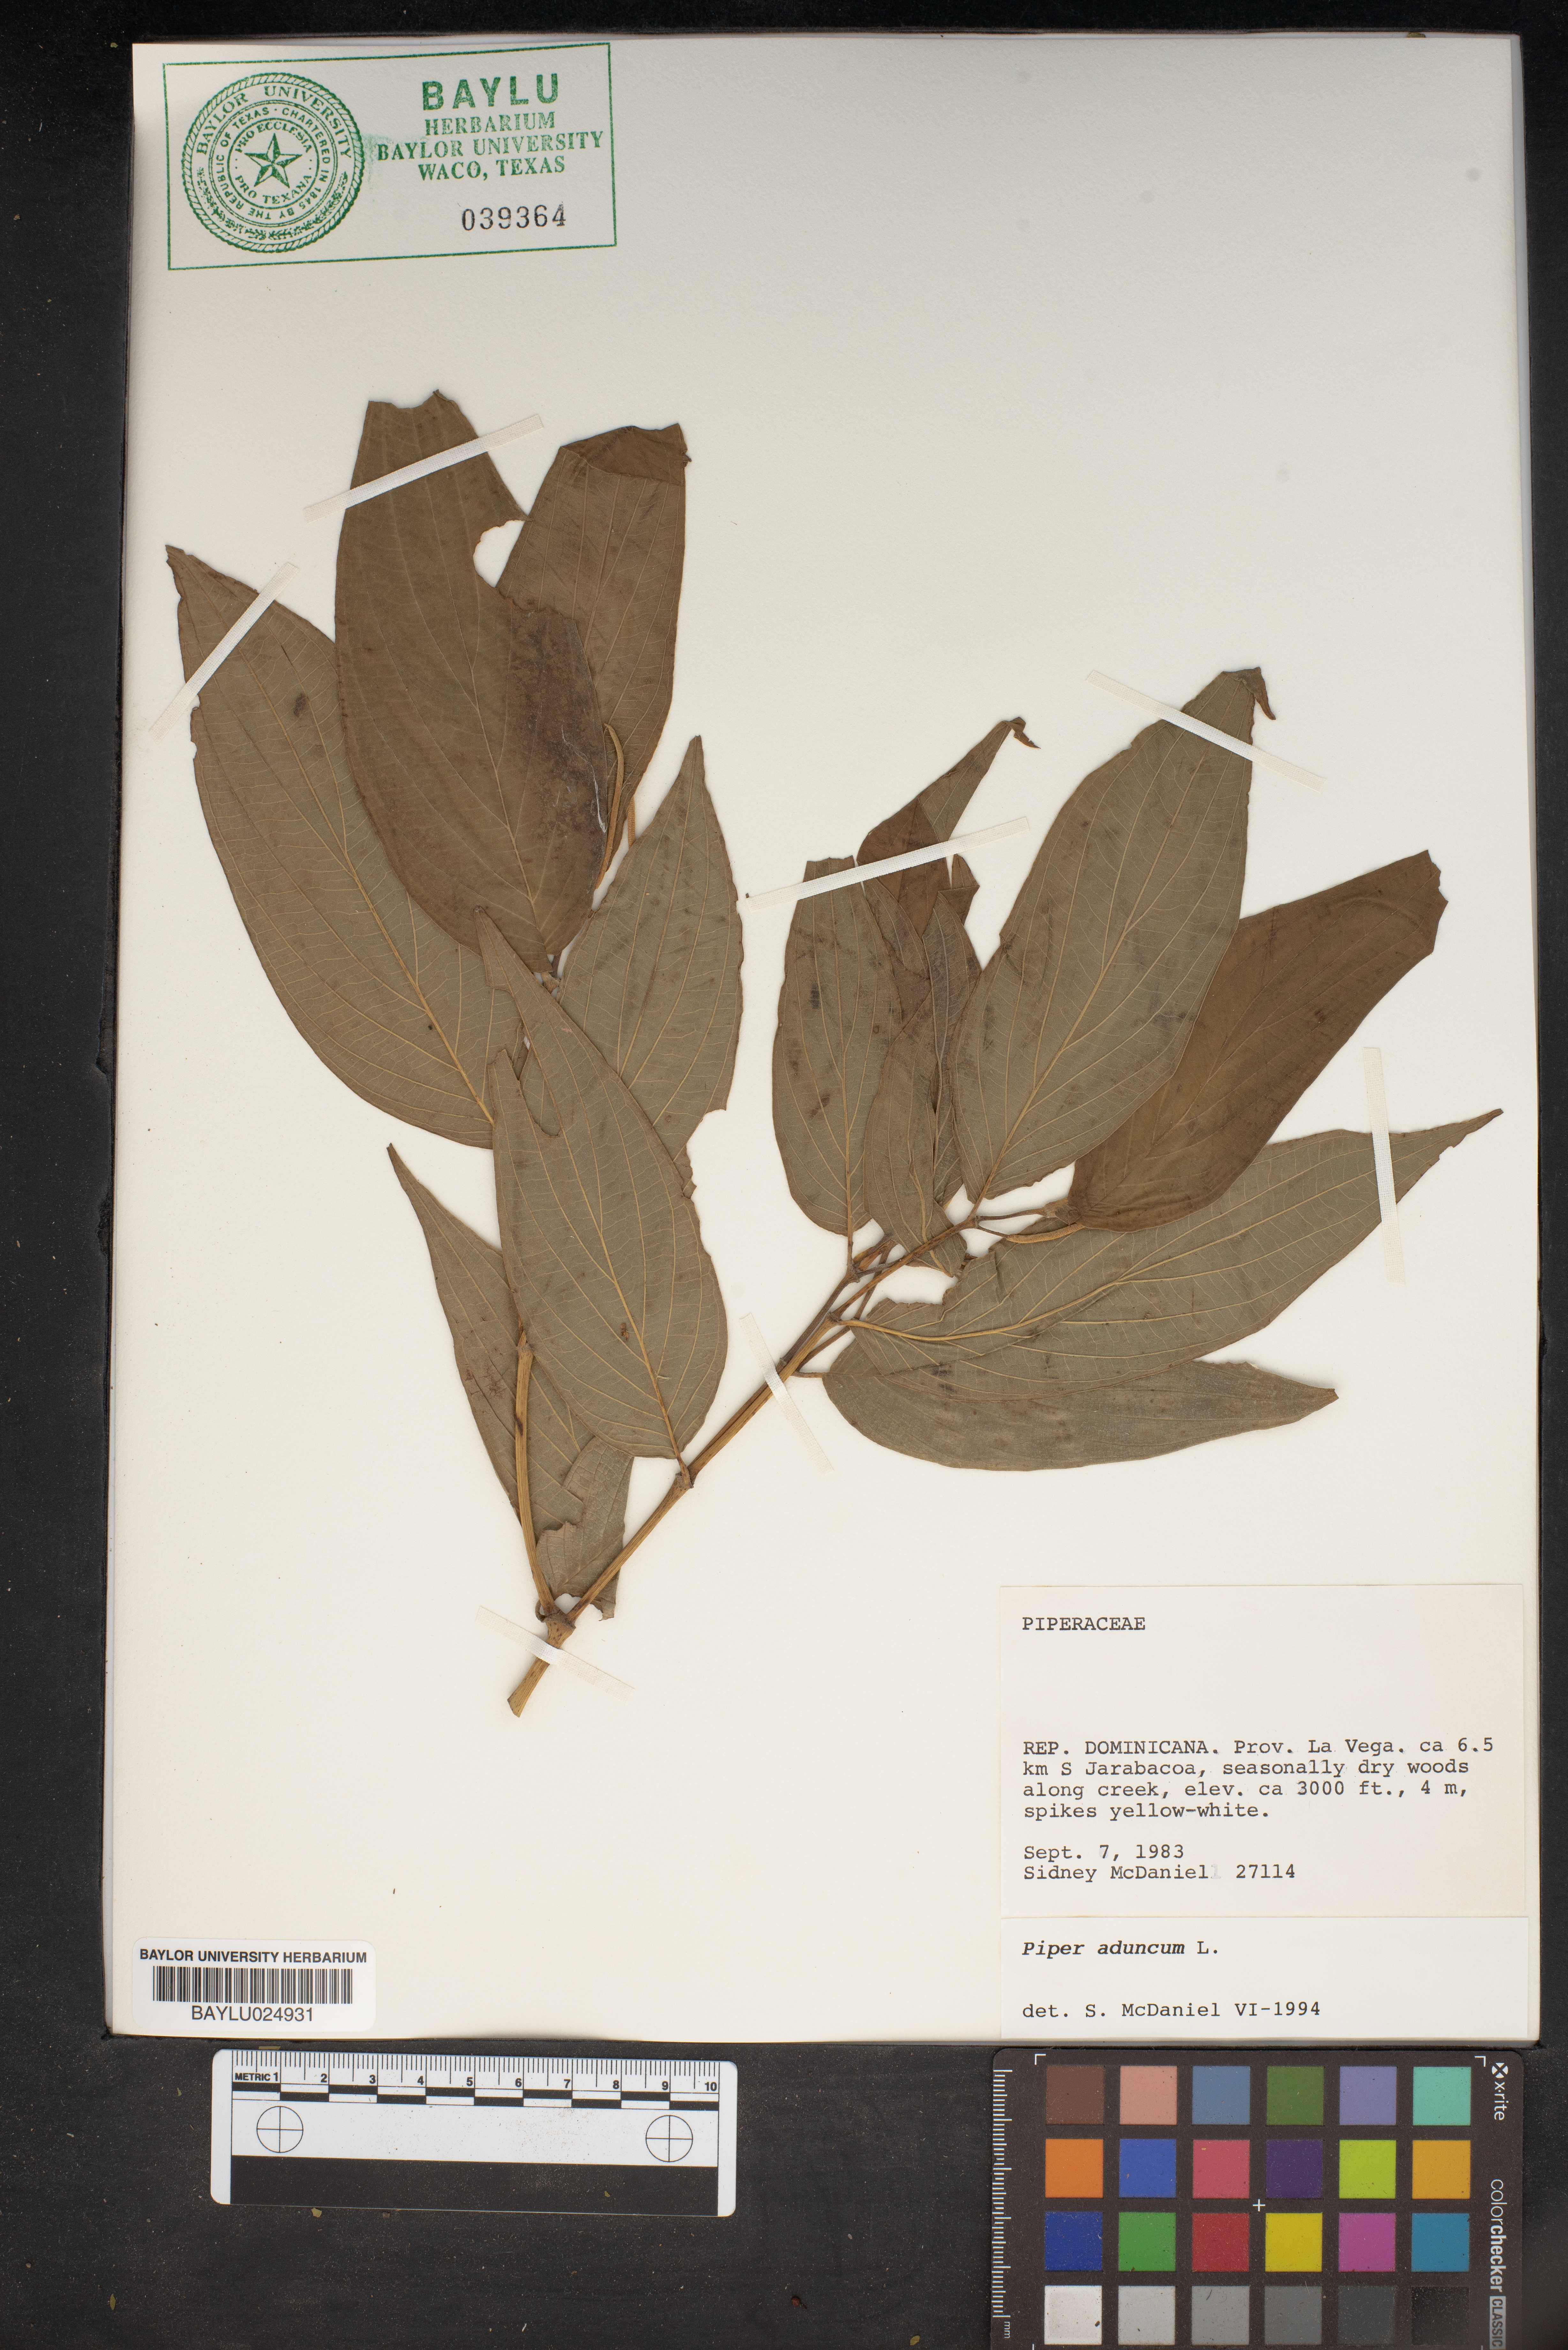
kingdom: Plantae
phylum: Tracheophyta
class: Magnoliopsida
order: Piperales
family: Piperaceae
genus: Piper
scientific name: Piper aduncum
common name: Spiked pepper
